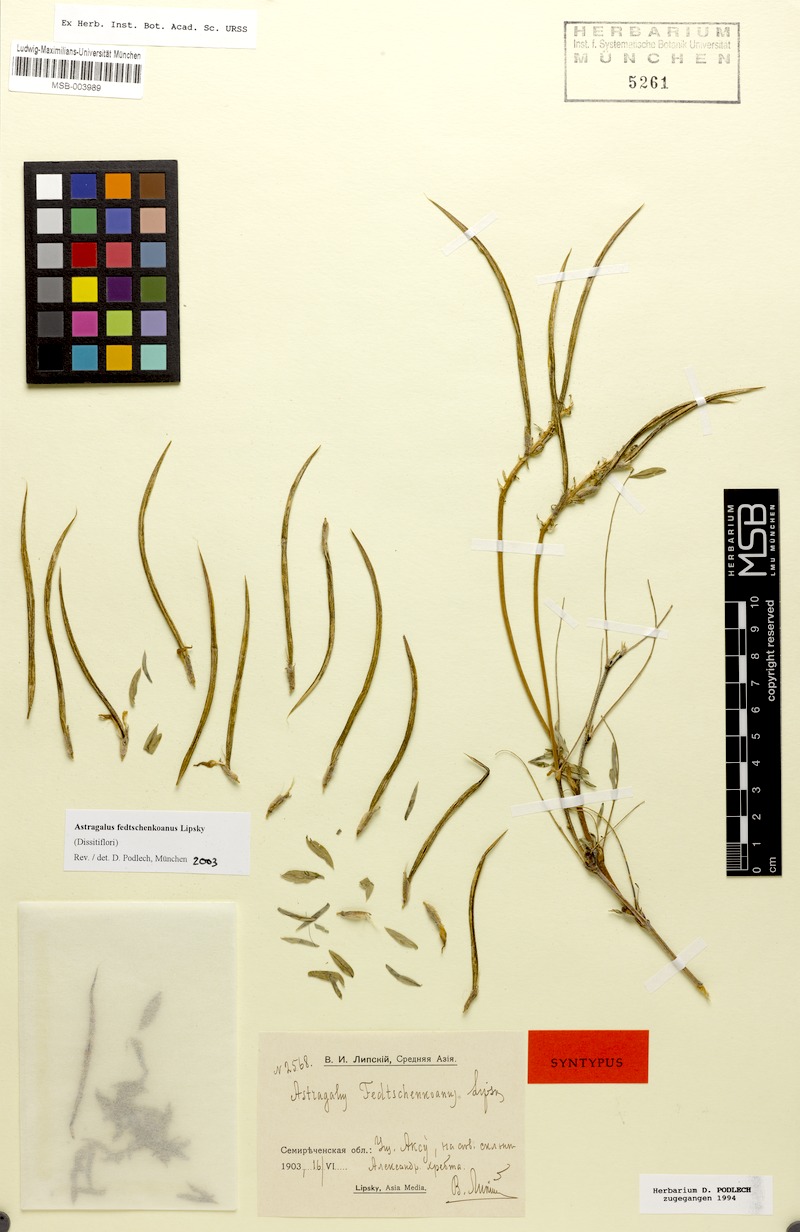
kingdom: Plantae
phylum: Tracheophyta
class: Magnoliopsida
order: Fabales
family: Fabaceae
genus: Astragalus
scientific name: Astragalus fedtschenkoanus
